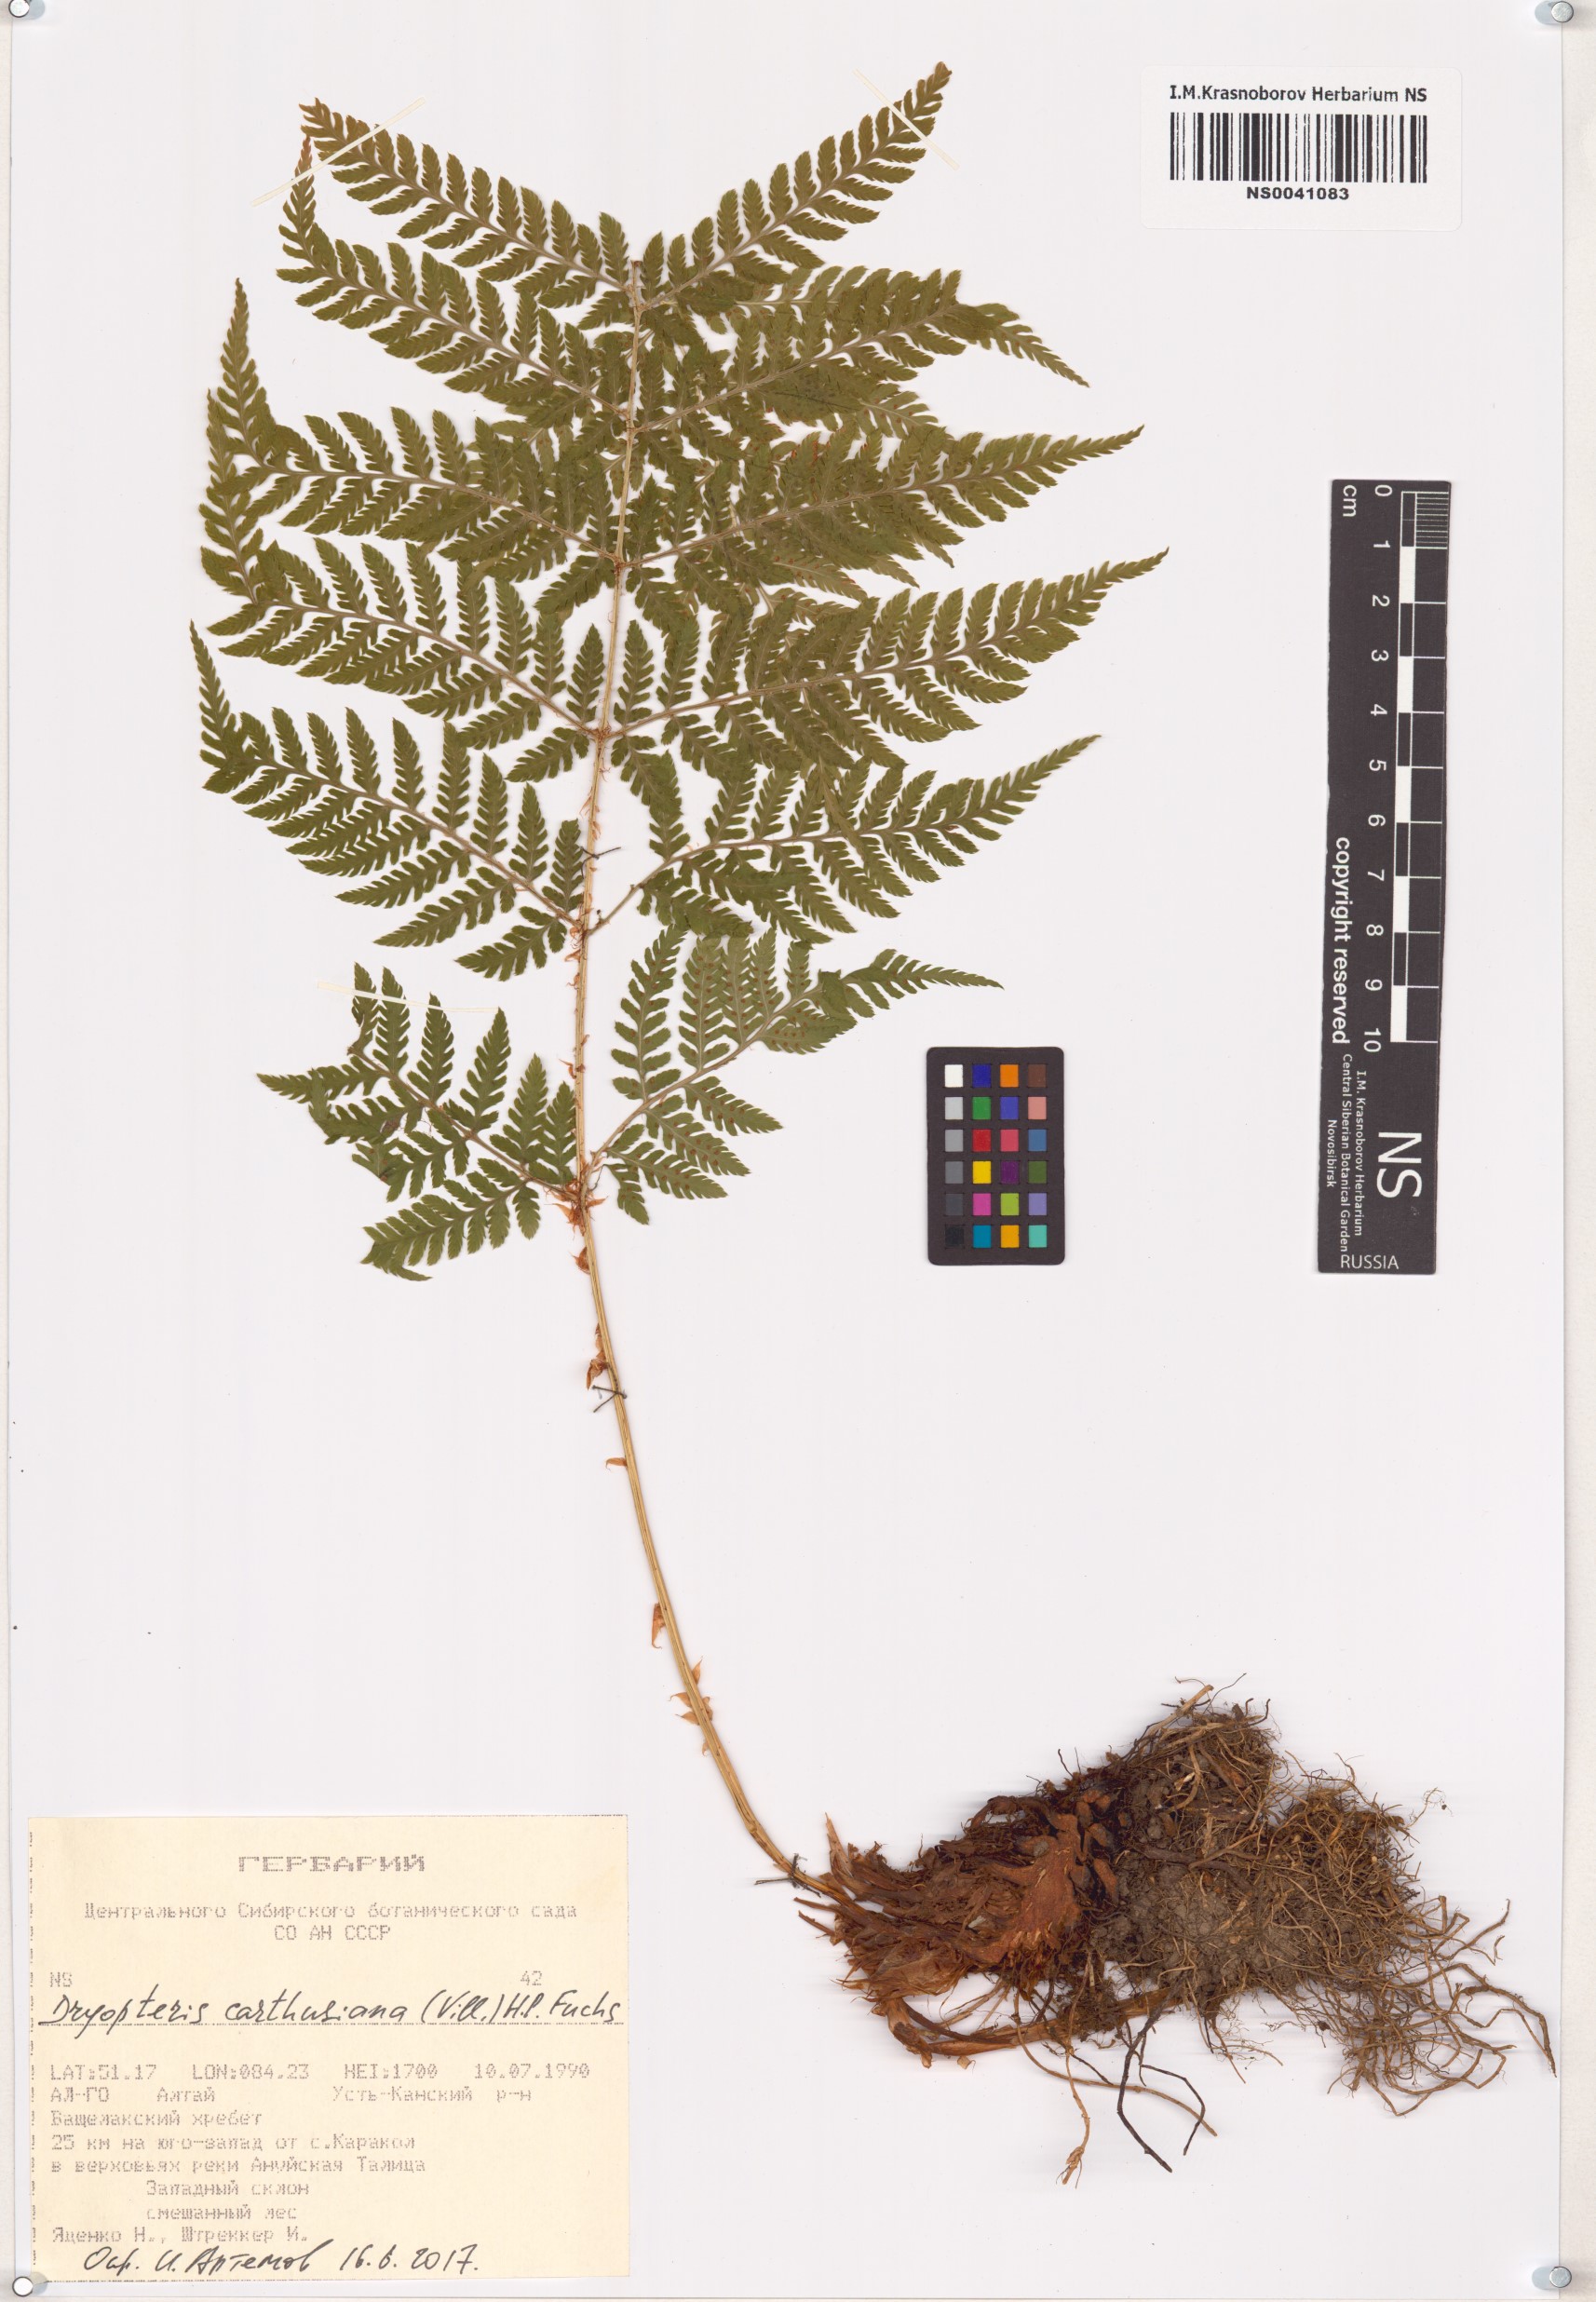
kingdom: Plantae
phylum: Tracheophyta
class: Polypodiopsida
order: Polypodiales
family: Dryopteridaceae
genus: Dryopteris
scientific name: Dryopteris carthusiana
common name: Narrow buckler-fern
